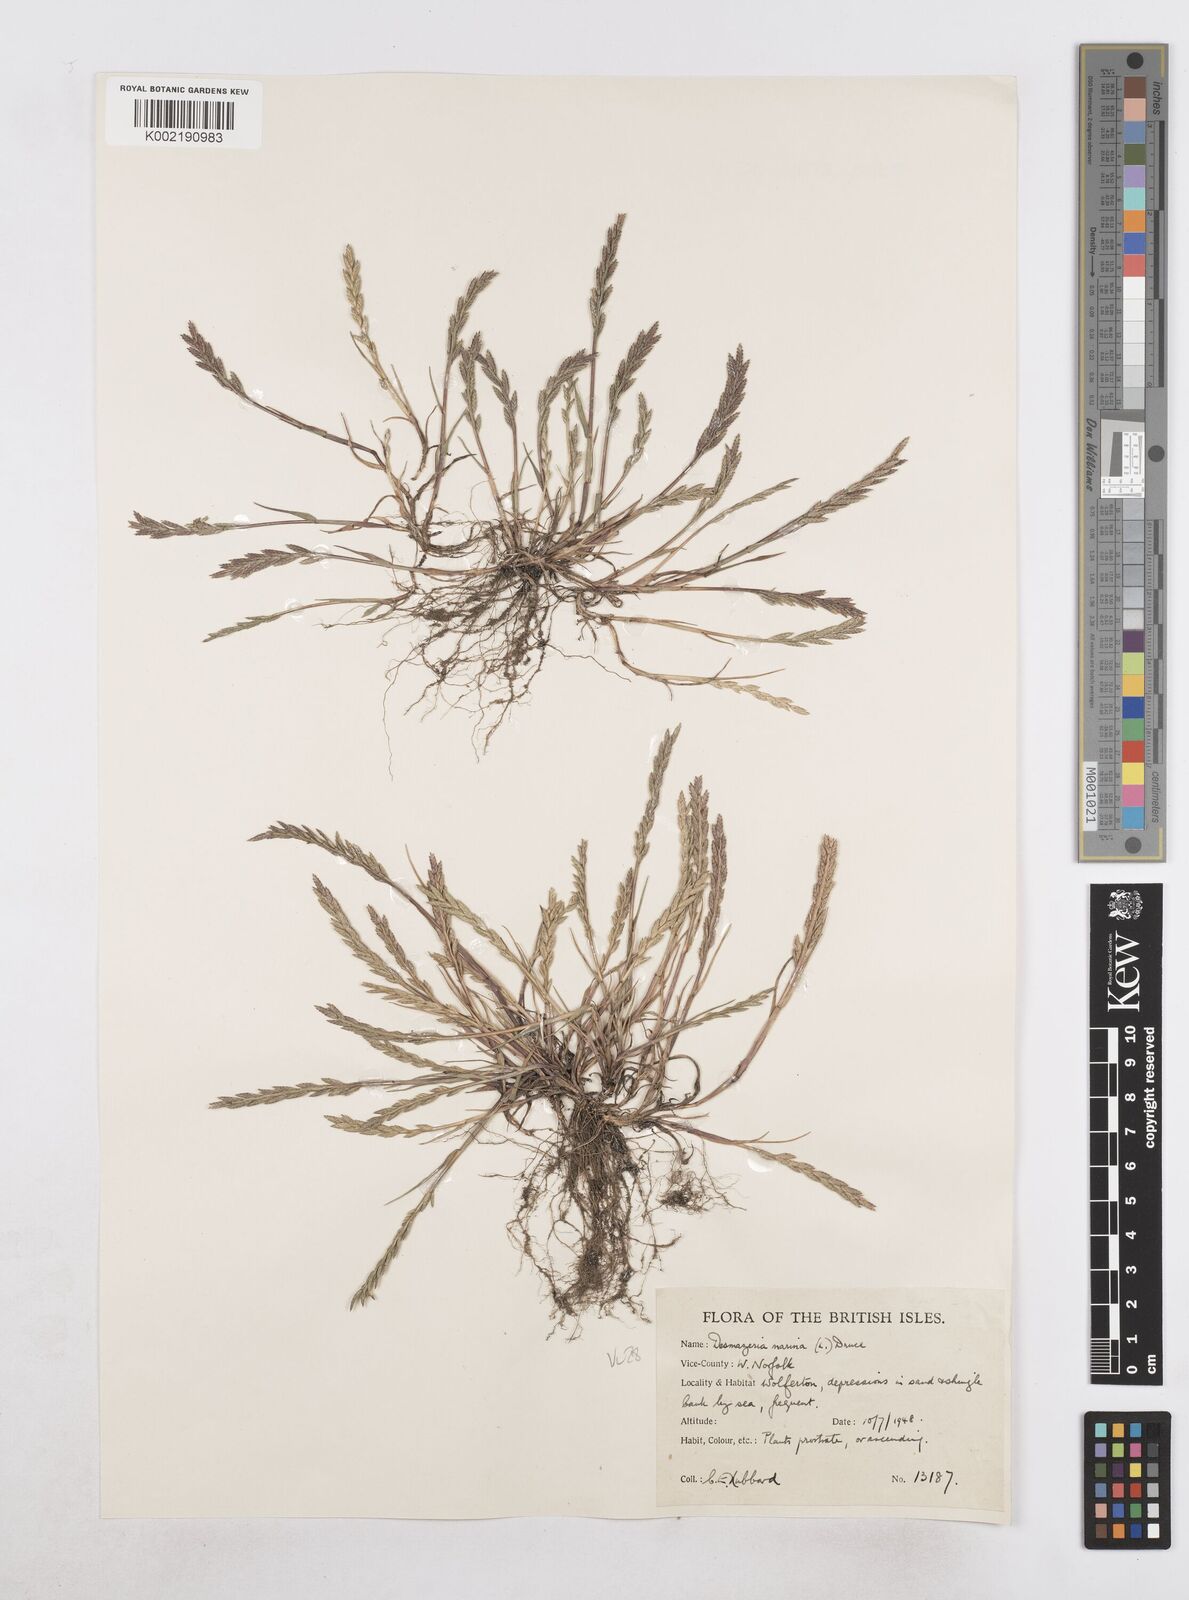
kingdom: Plantae
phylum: Tracheophyta
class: Liliopsida
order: Poales
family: Poaceae
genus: Catapodium
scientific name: Catapodium marinum
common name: Sea fern-grass
